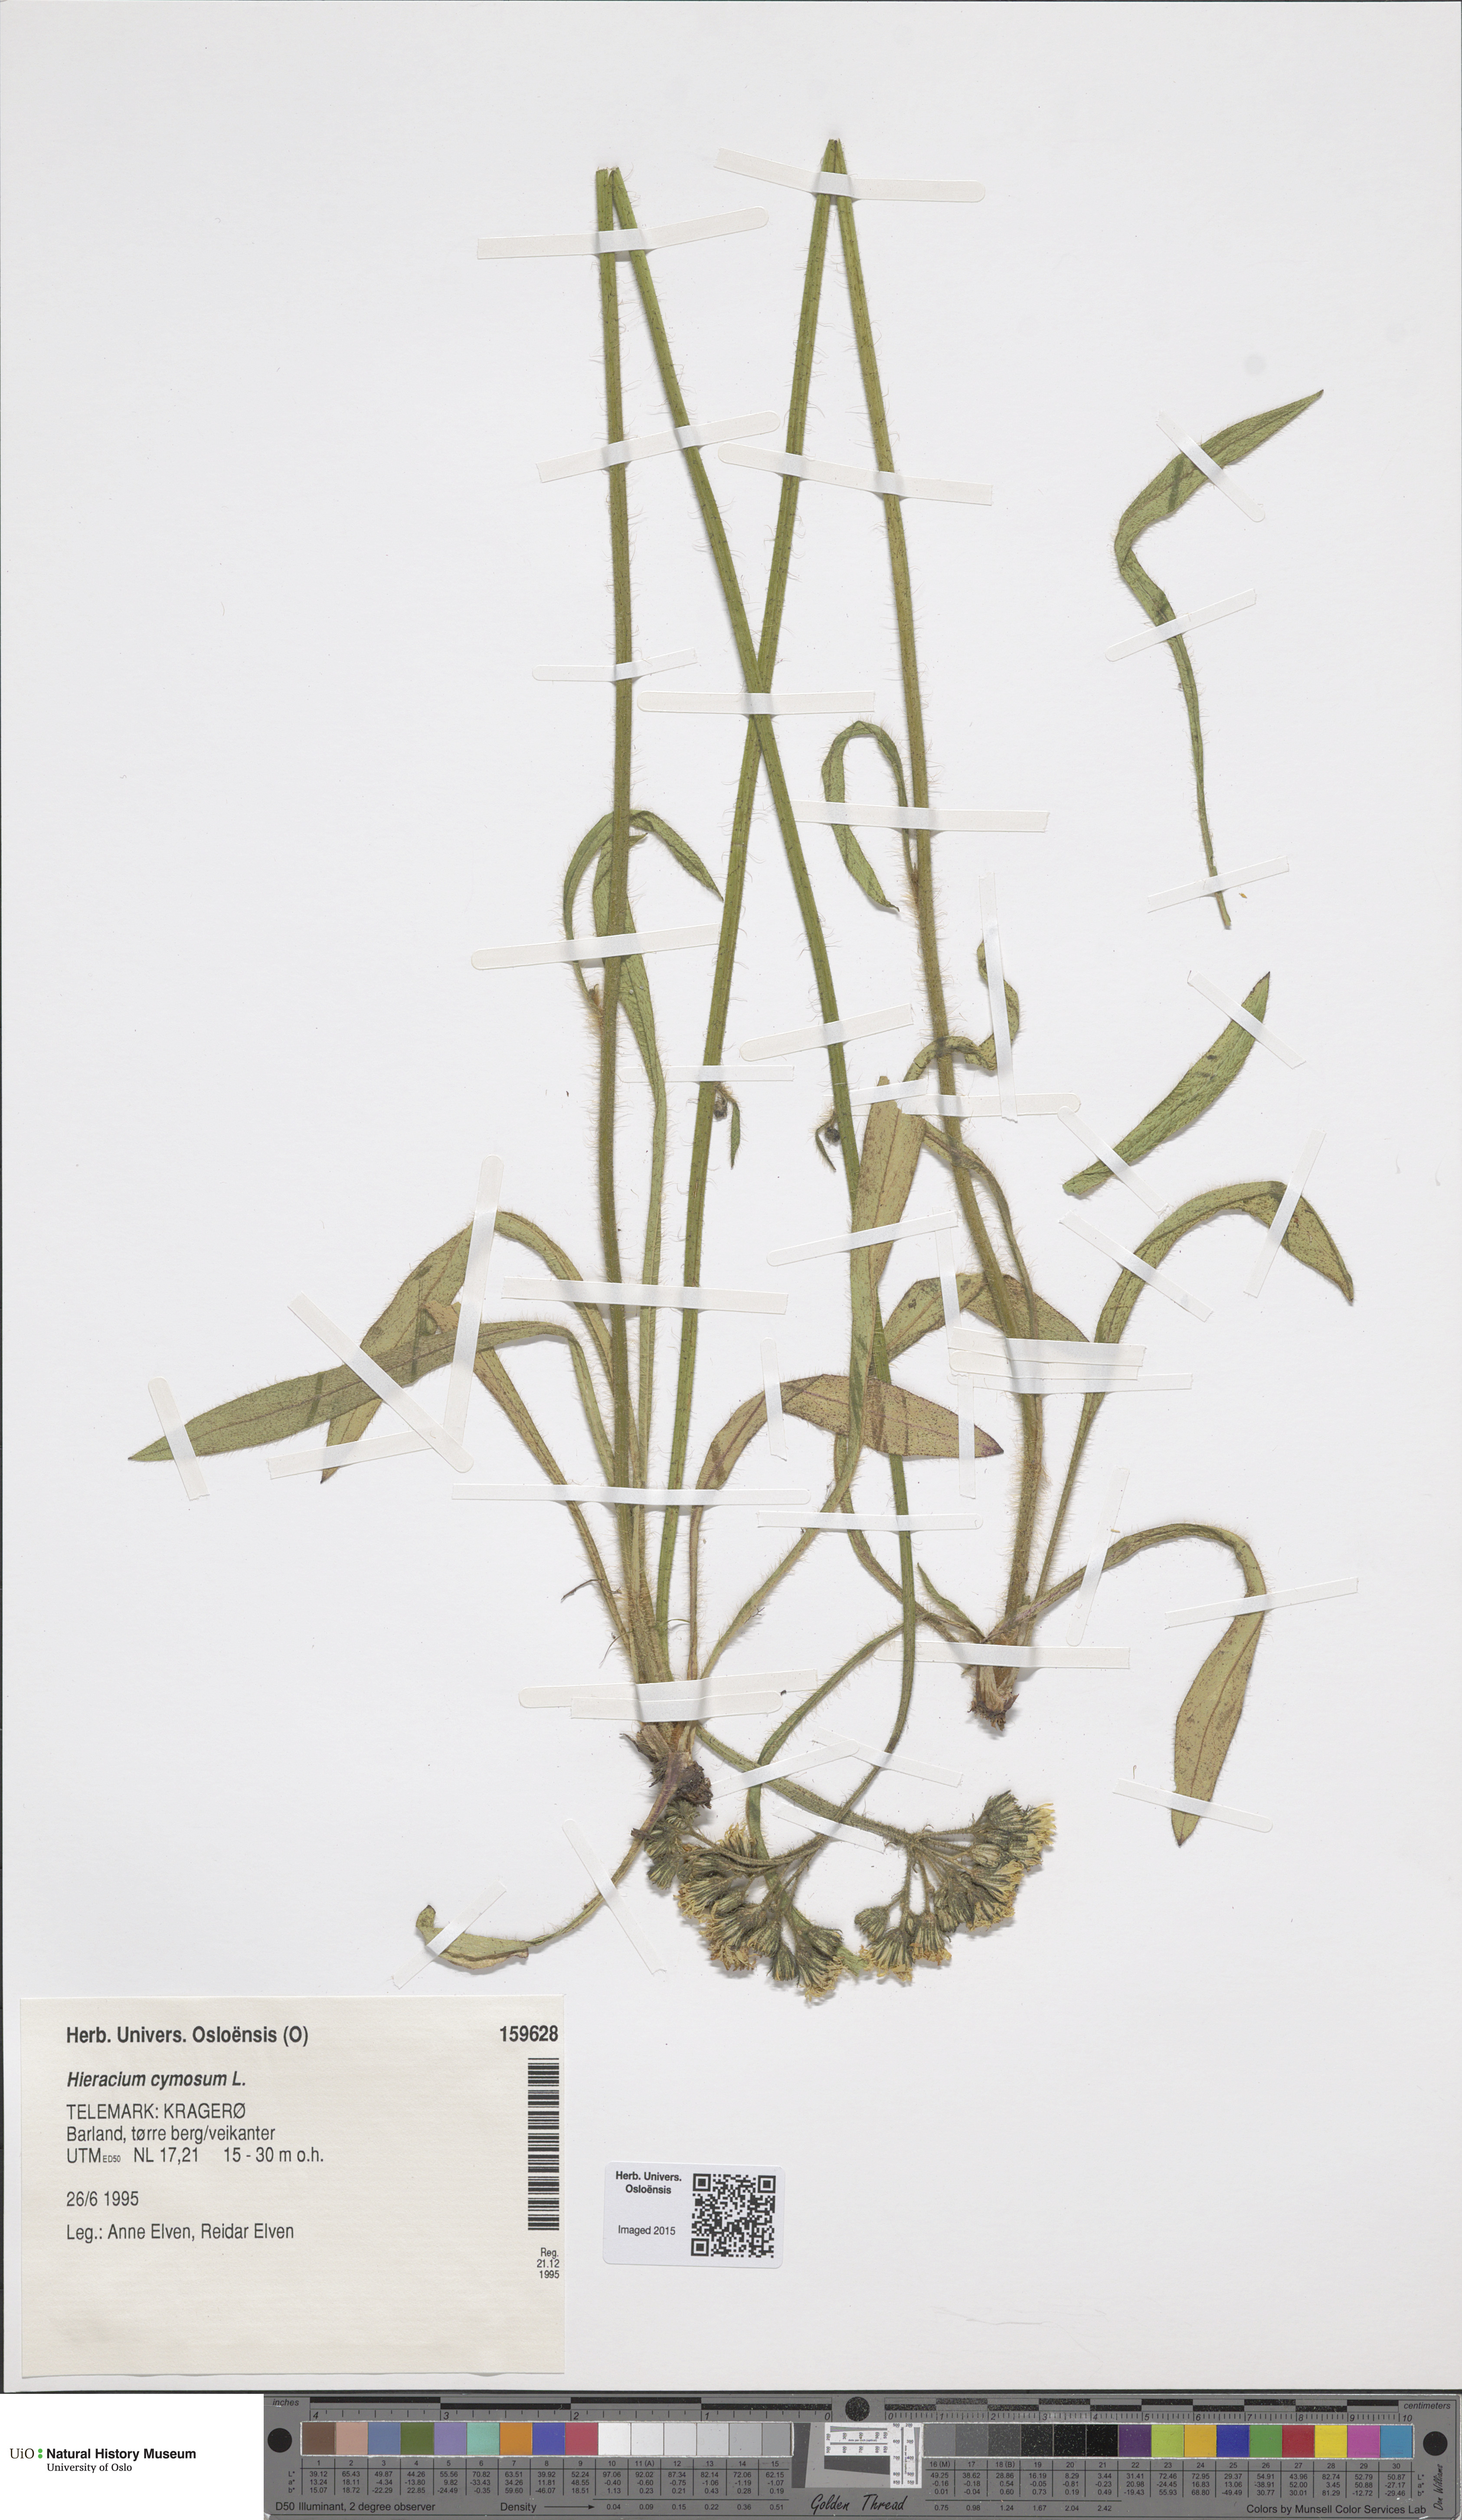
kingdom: Plantae
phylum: Tracheophyta
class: Magnoliopsida
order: Asterales
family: Asteraceae
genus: Pilosella
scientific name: Pilosella cymosa
